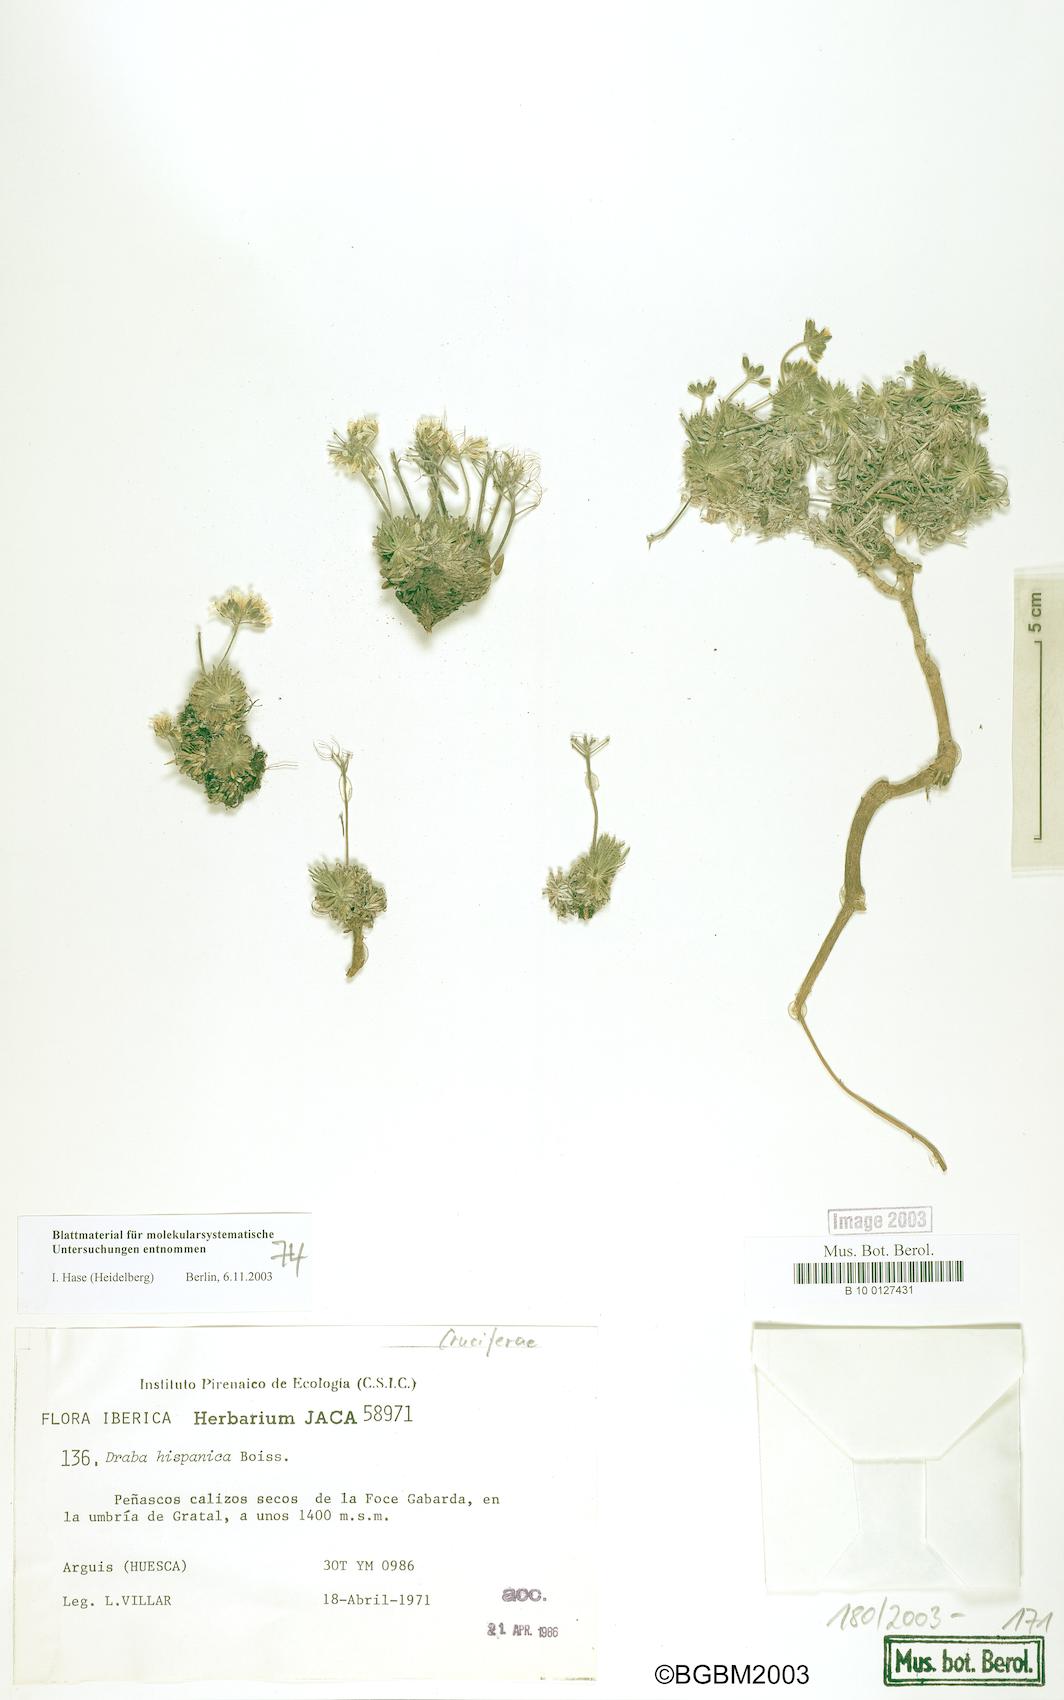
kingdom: Plantae
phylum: Tracheophyta
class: Magnoliopsida
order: Brassicales
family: Brassicaceae
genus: Draba
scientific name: Draba hispanica
